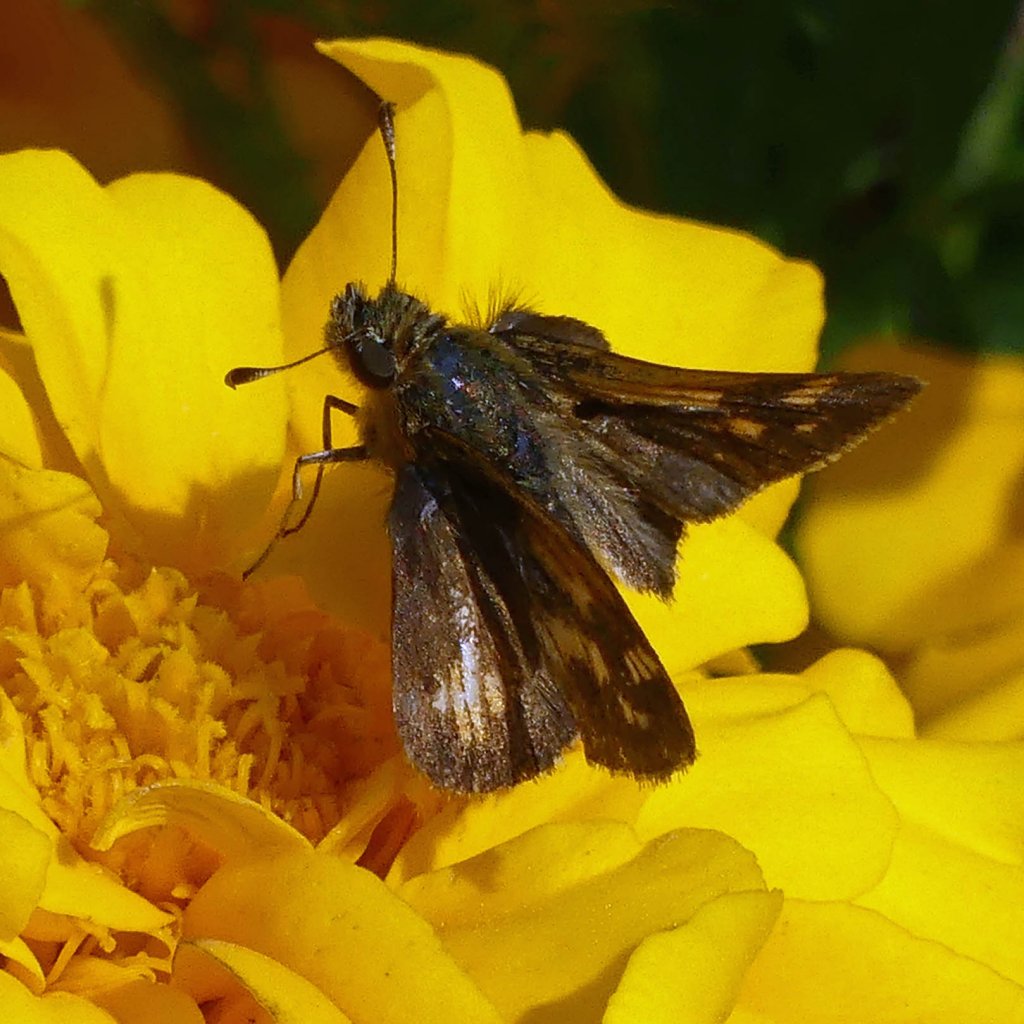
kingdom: Animalia
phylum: Arthropoda
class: Insecta
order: Lepidoptera
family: Hesperiidae
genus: Polites
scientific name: Polites coras
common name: Peck's Skipper
